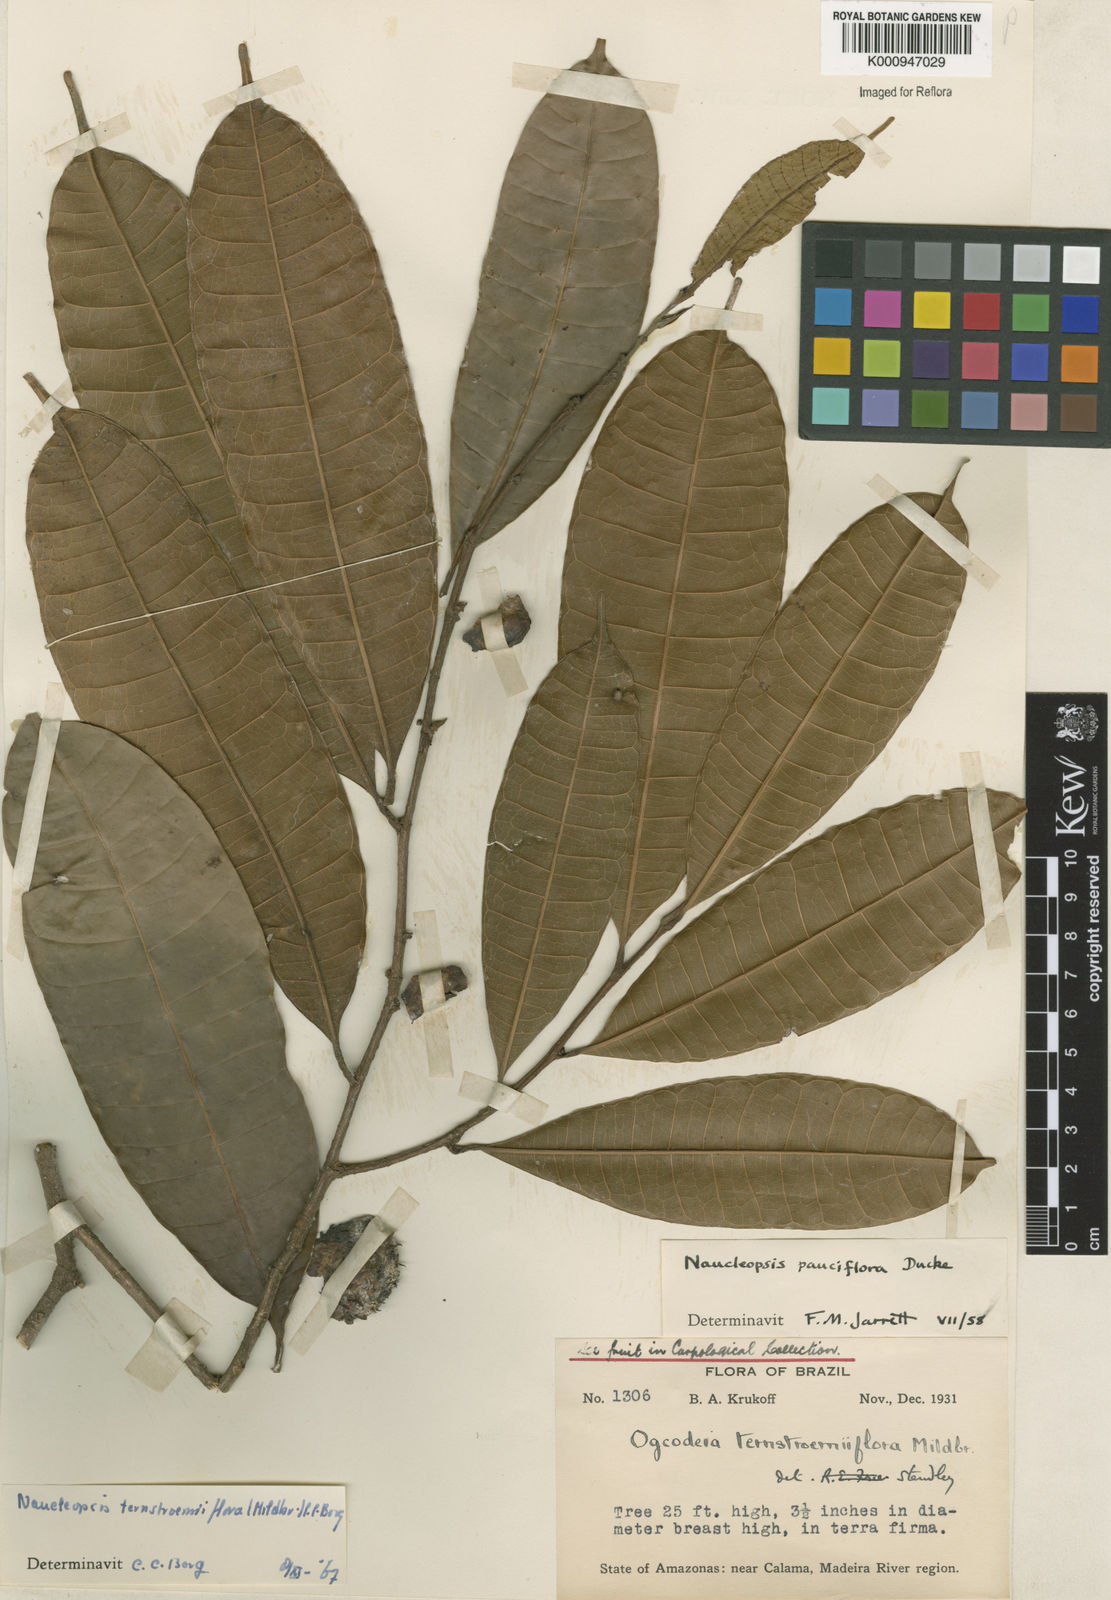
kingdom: Plantae
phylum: Tracheophyta
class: Magnoliopsida
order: Rosales
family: Moraceae
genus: Naucleopsis
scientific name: Naucleopsis ternstroemiiflora
